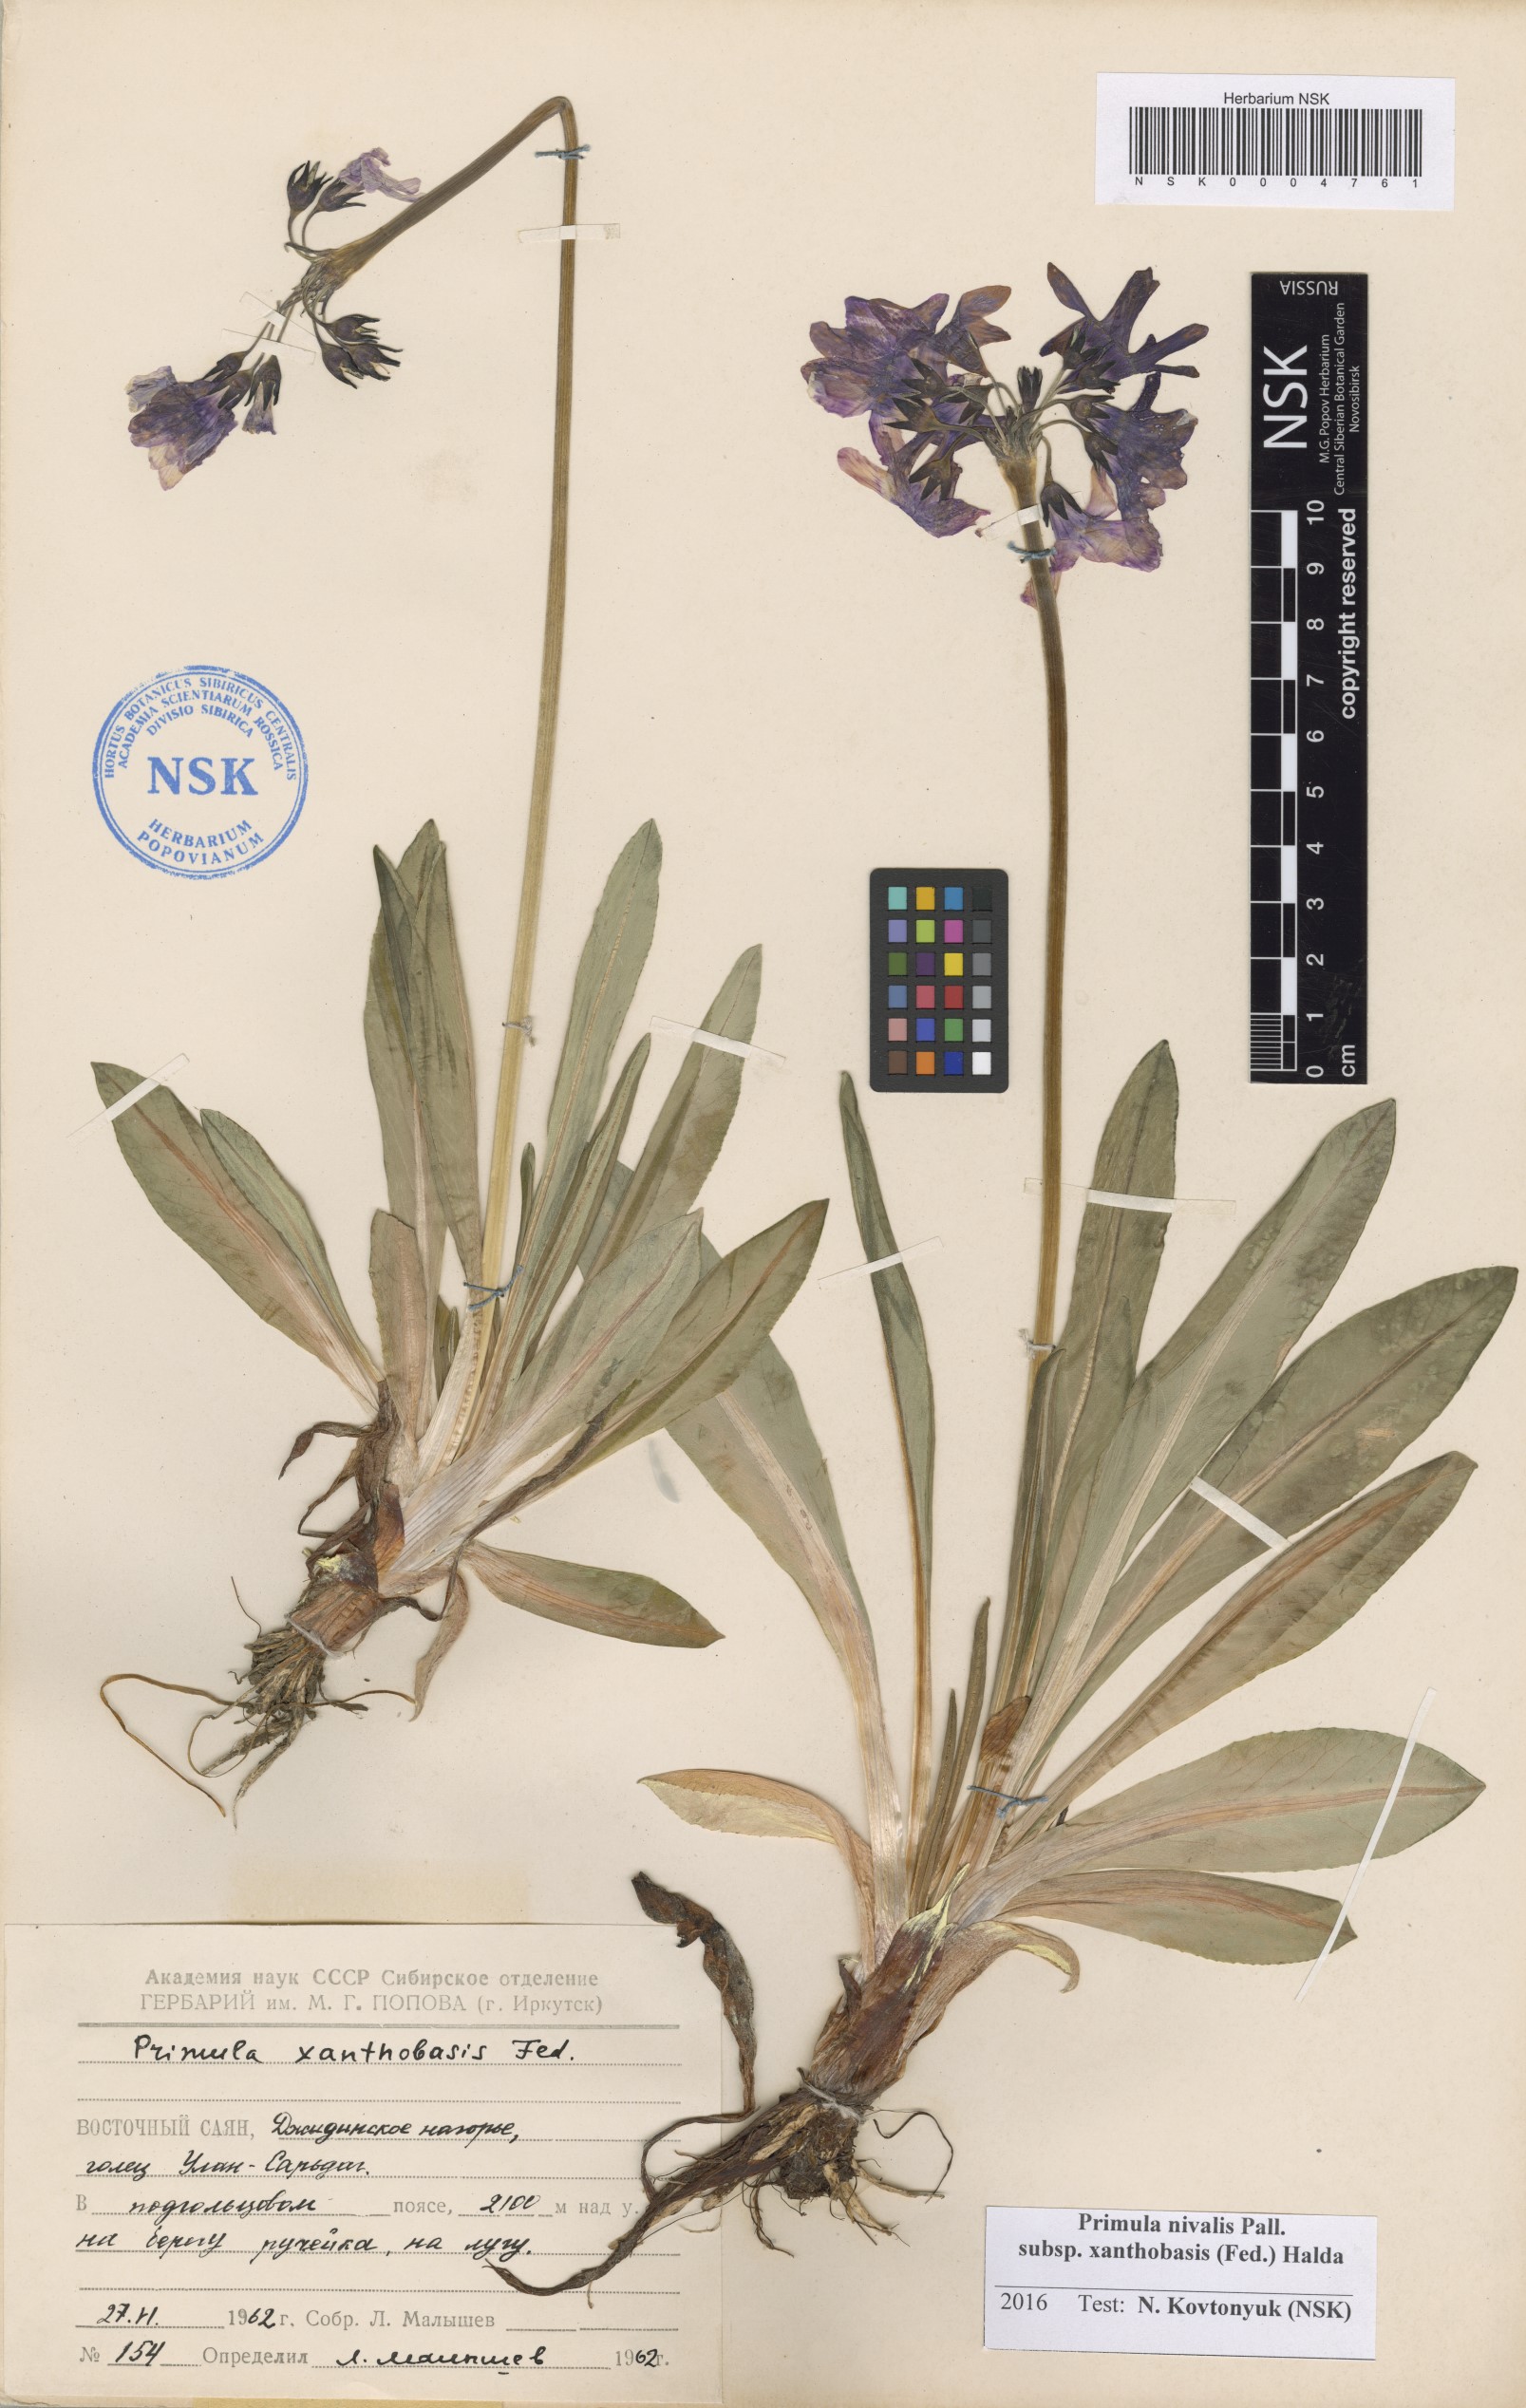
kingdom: Plantae
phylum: Tracheophyta
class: Magnoliopsida
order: Ericales
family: Primulaceae
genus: Primula
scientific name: Primula nivalis
